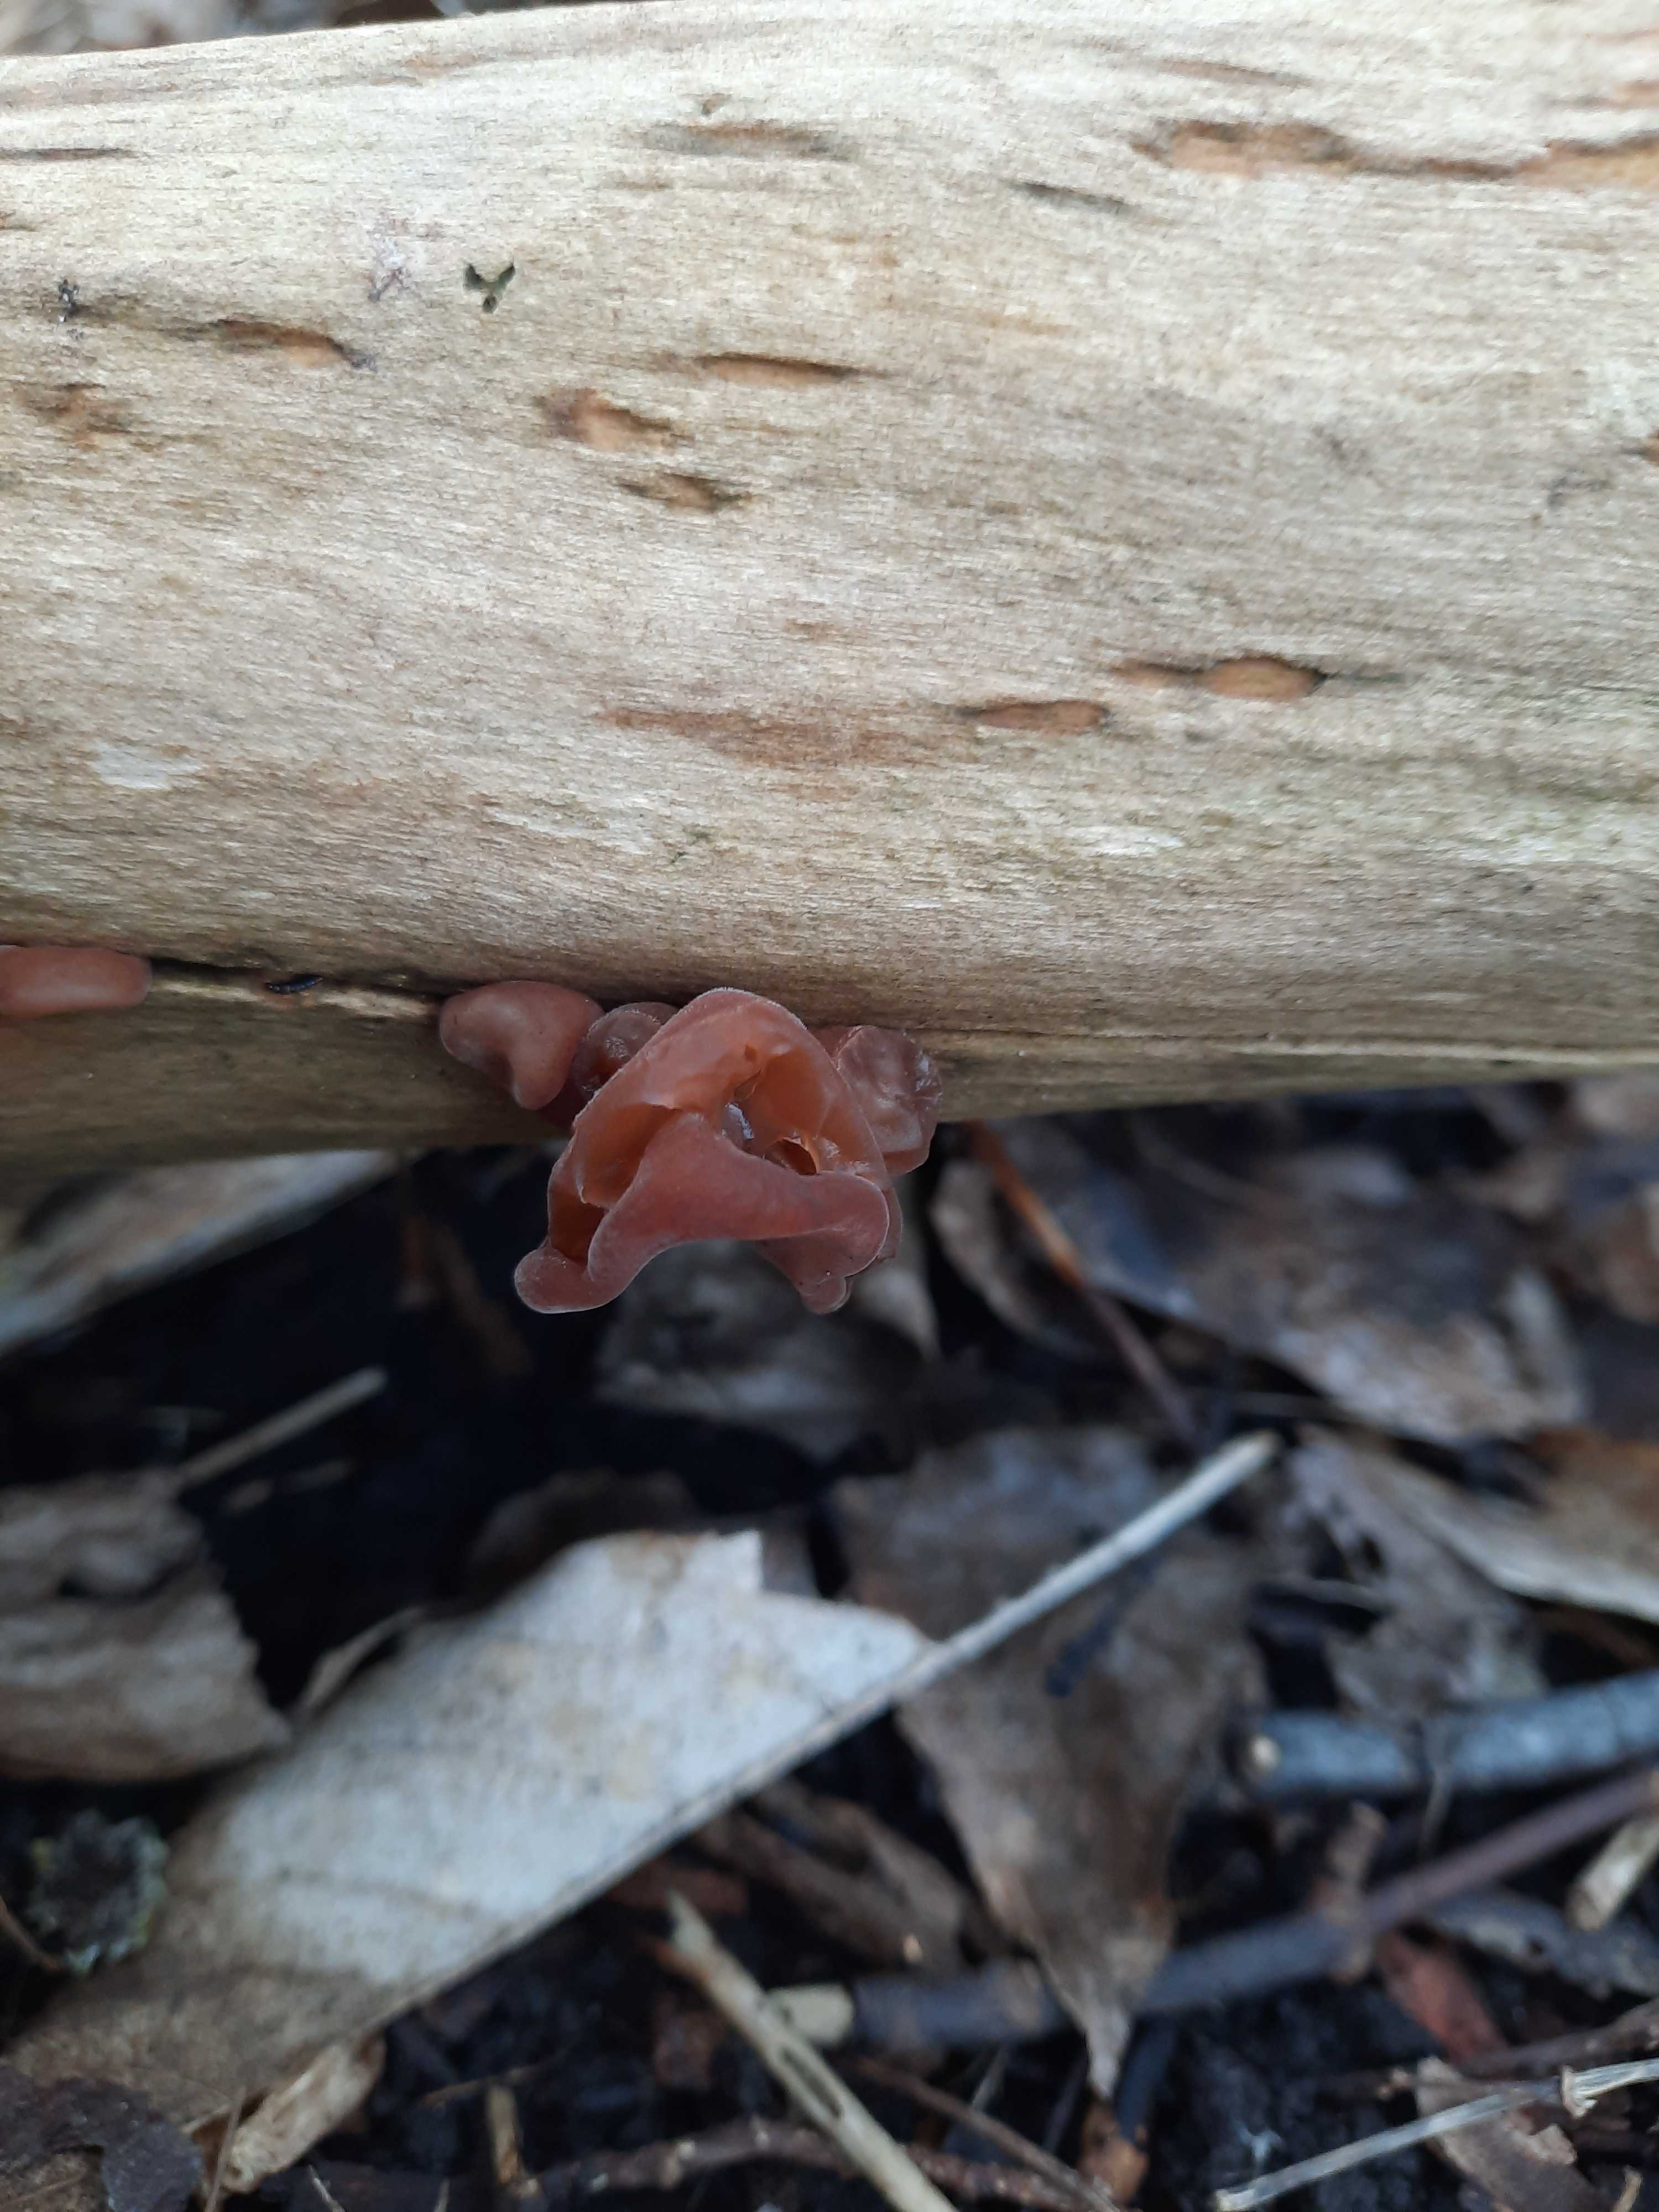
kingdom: Fungi
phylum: Basidiomycota
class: Agaricomycetes
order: Auriculariales
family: Auriculariaceae
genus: Auricularia
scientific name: Auricularia auricula-judae
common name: almindelig judasøre
